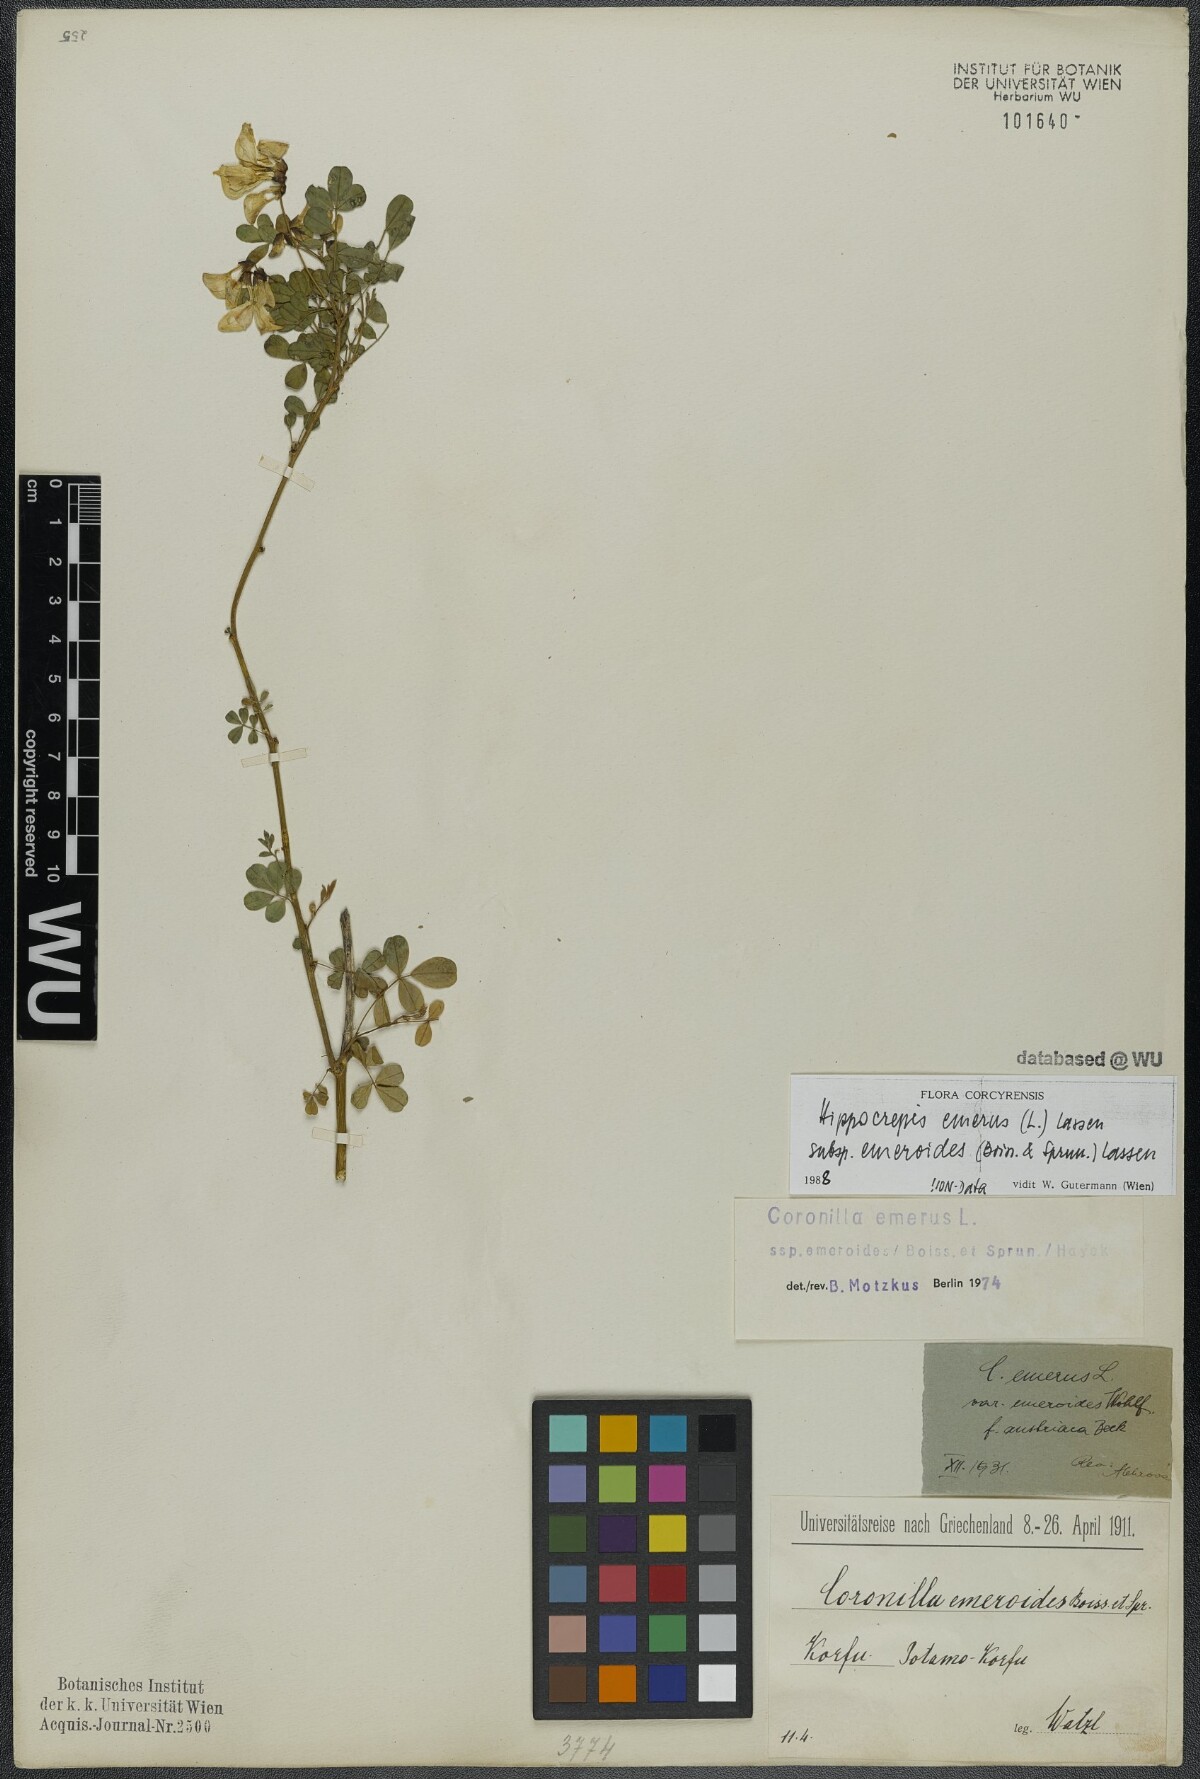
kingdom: Plantae
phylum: Tracheophyta
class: Magnoliopsida
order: Fabales
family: Fabaceae
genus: Hippocrepis
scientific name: Hippocrepis emerus
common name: Scorpion senna
